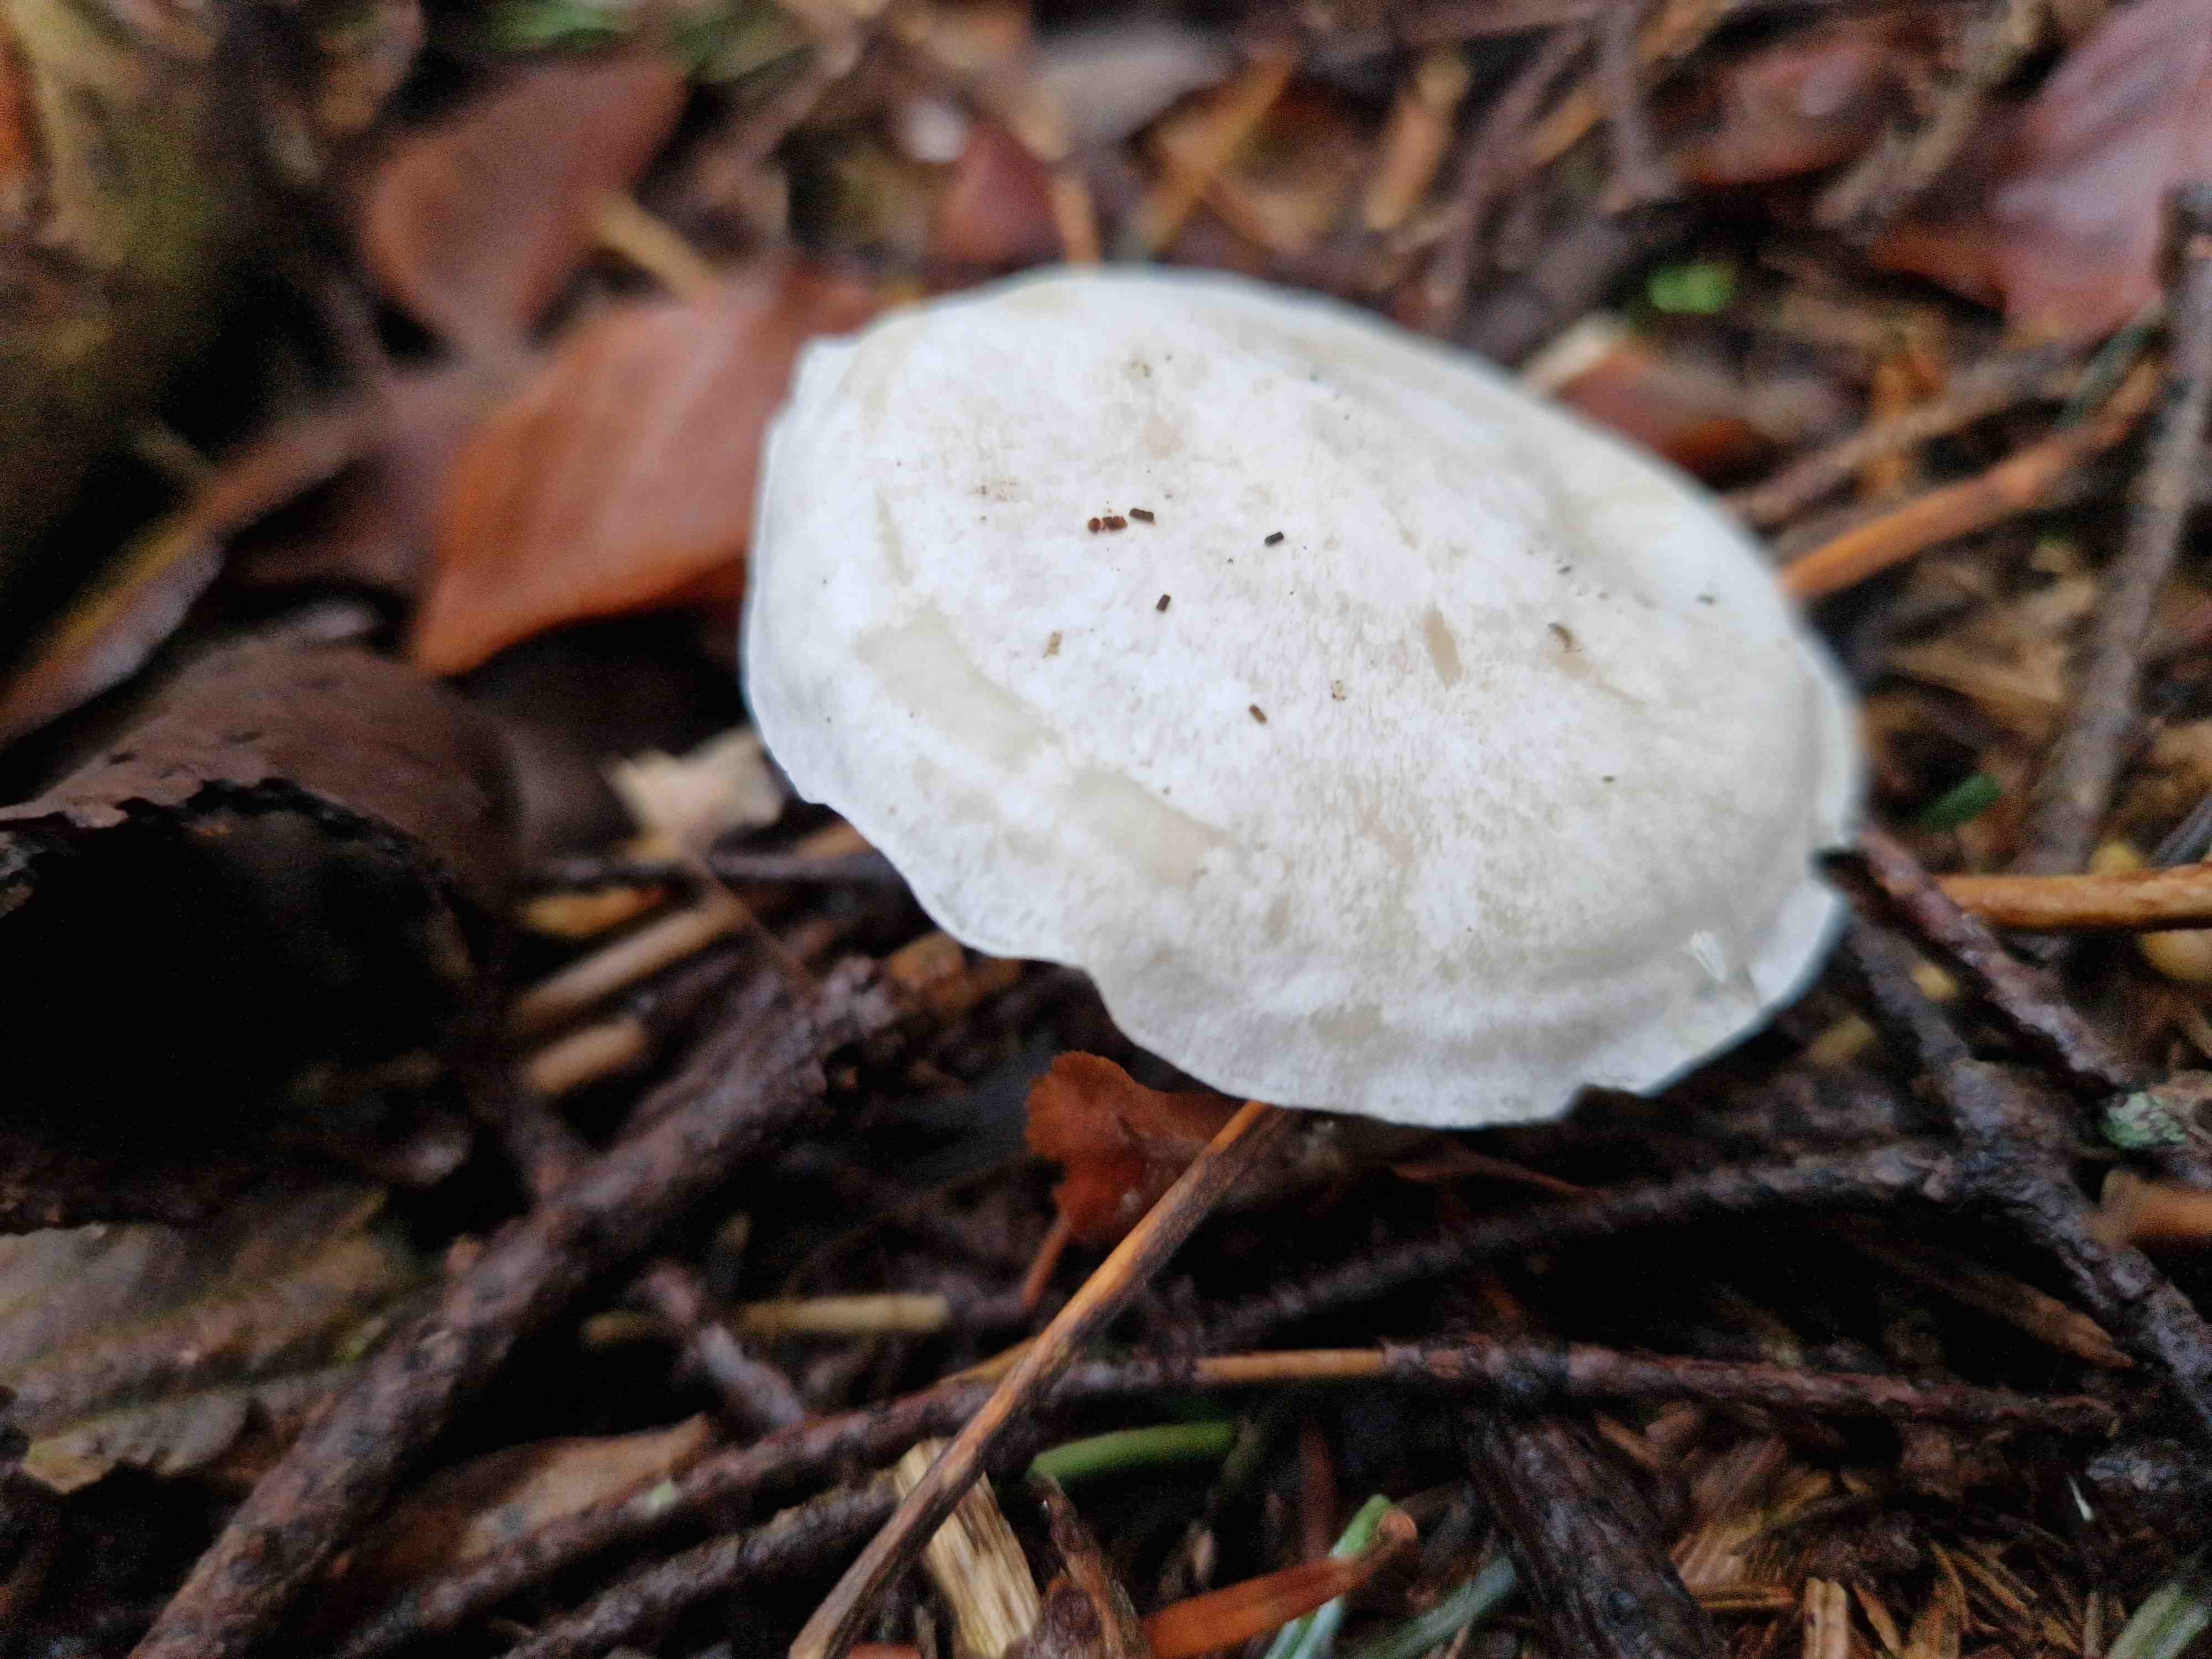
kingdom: Fungi
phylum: Basidiomycota
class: Agaricomycetes
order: Agaricales
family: Tricholomataceae
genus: Clitocybe
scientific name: Clitocybe
